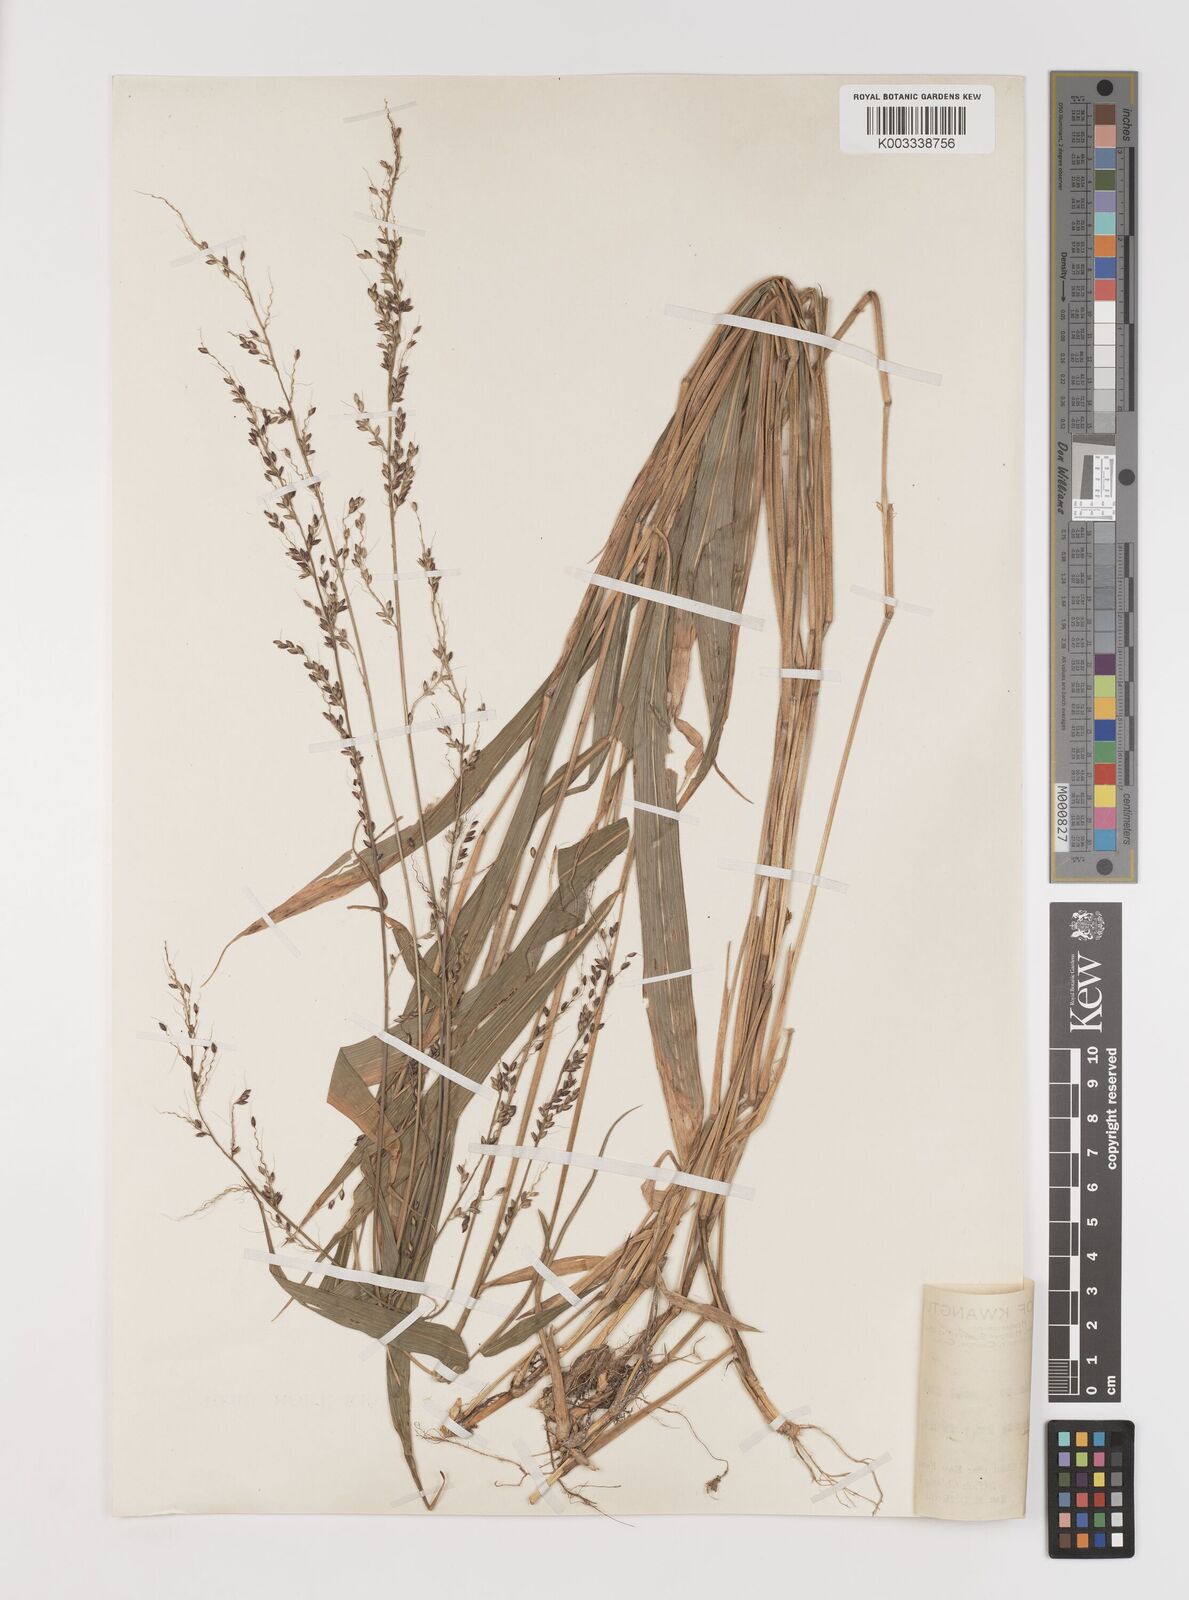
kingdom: Plantae
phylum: Tracheophyta
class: Liliopsida
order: Poales
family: Poaceae
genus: Setaria
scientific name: Setaria plicata
